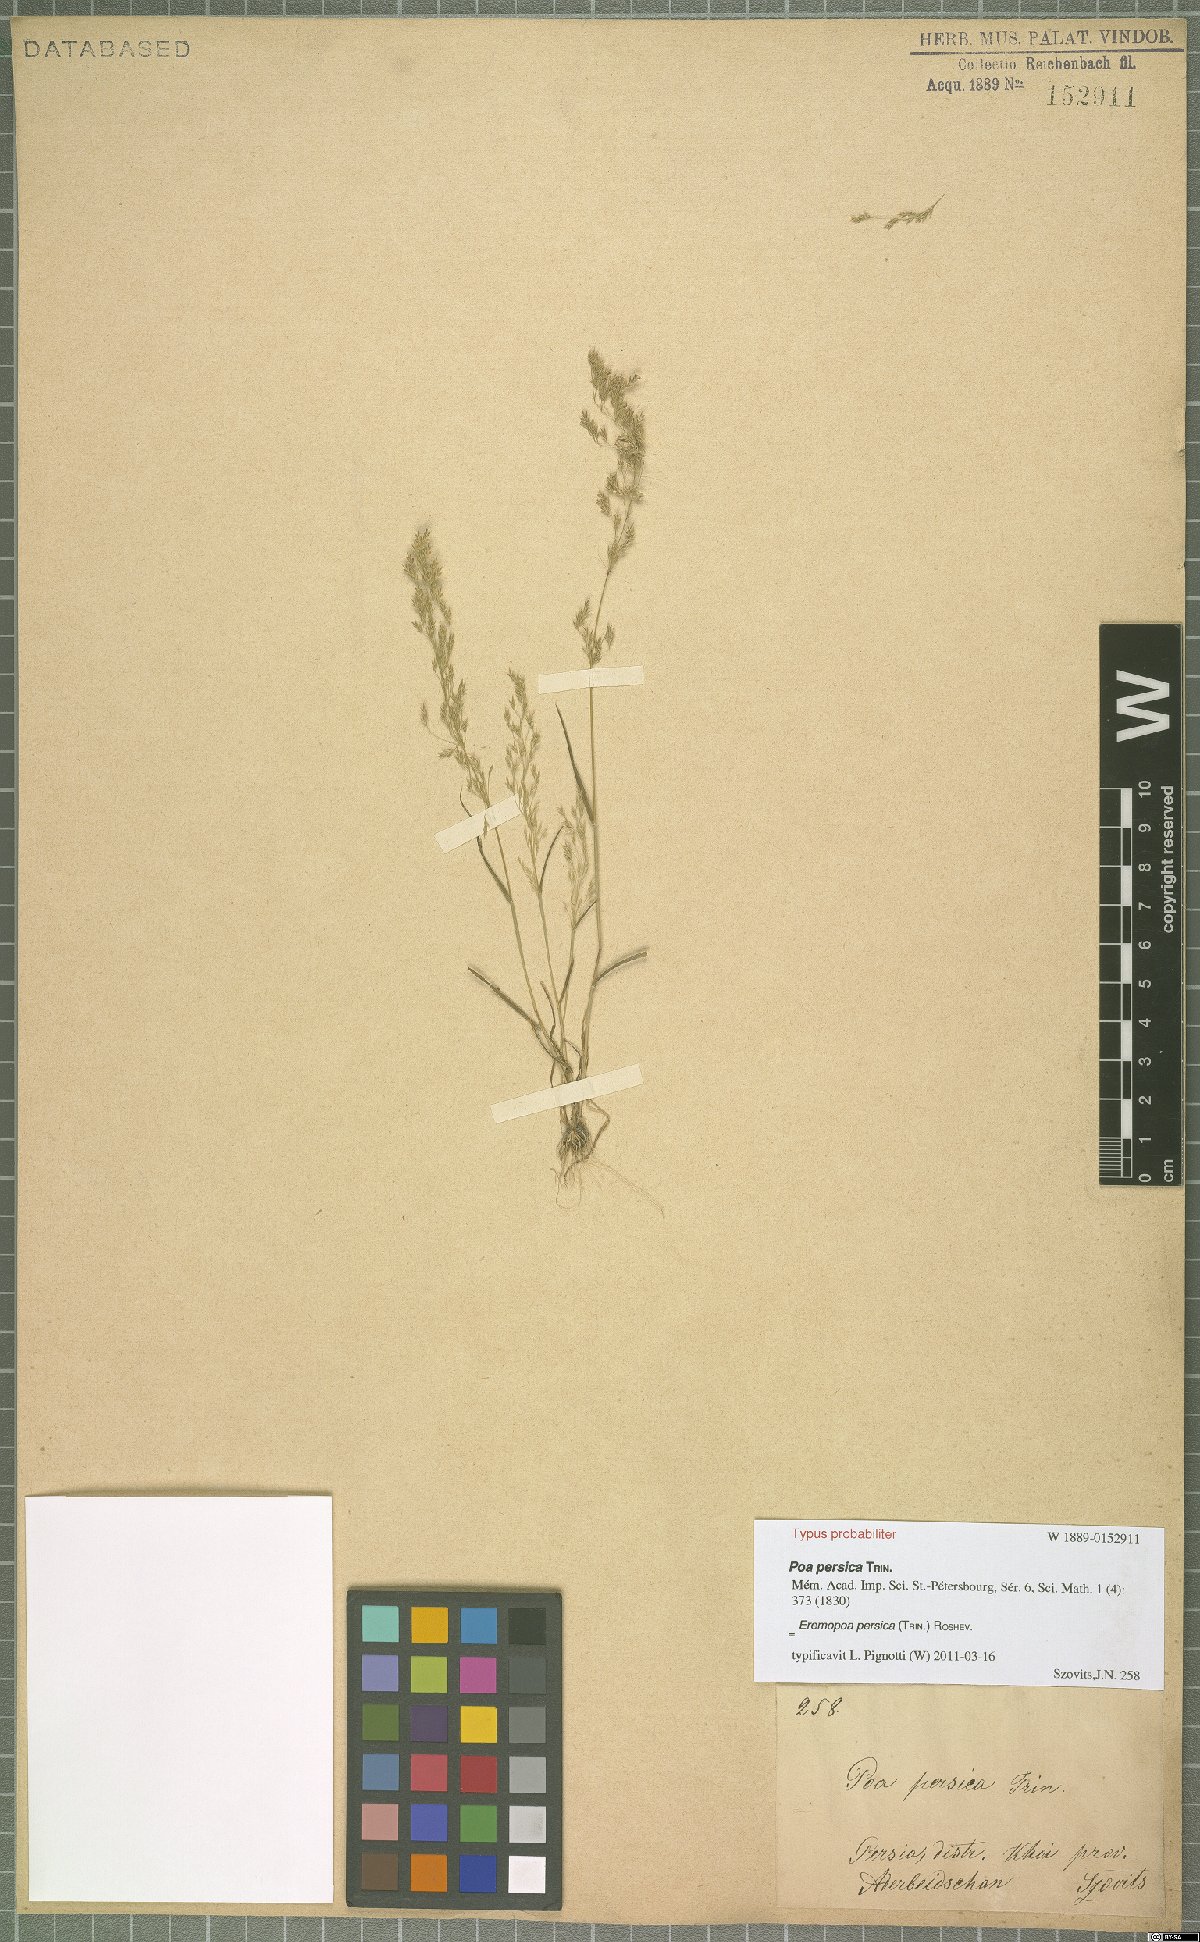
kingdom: Plantae
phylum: Tracheophyta
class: Liliopsida
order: Poales
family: Poaceae
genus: Poa
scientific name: Poa persica
